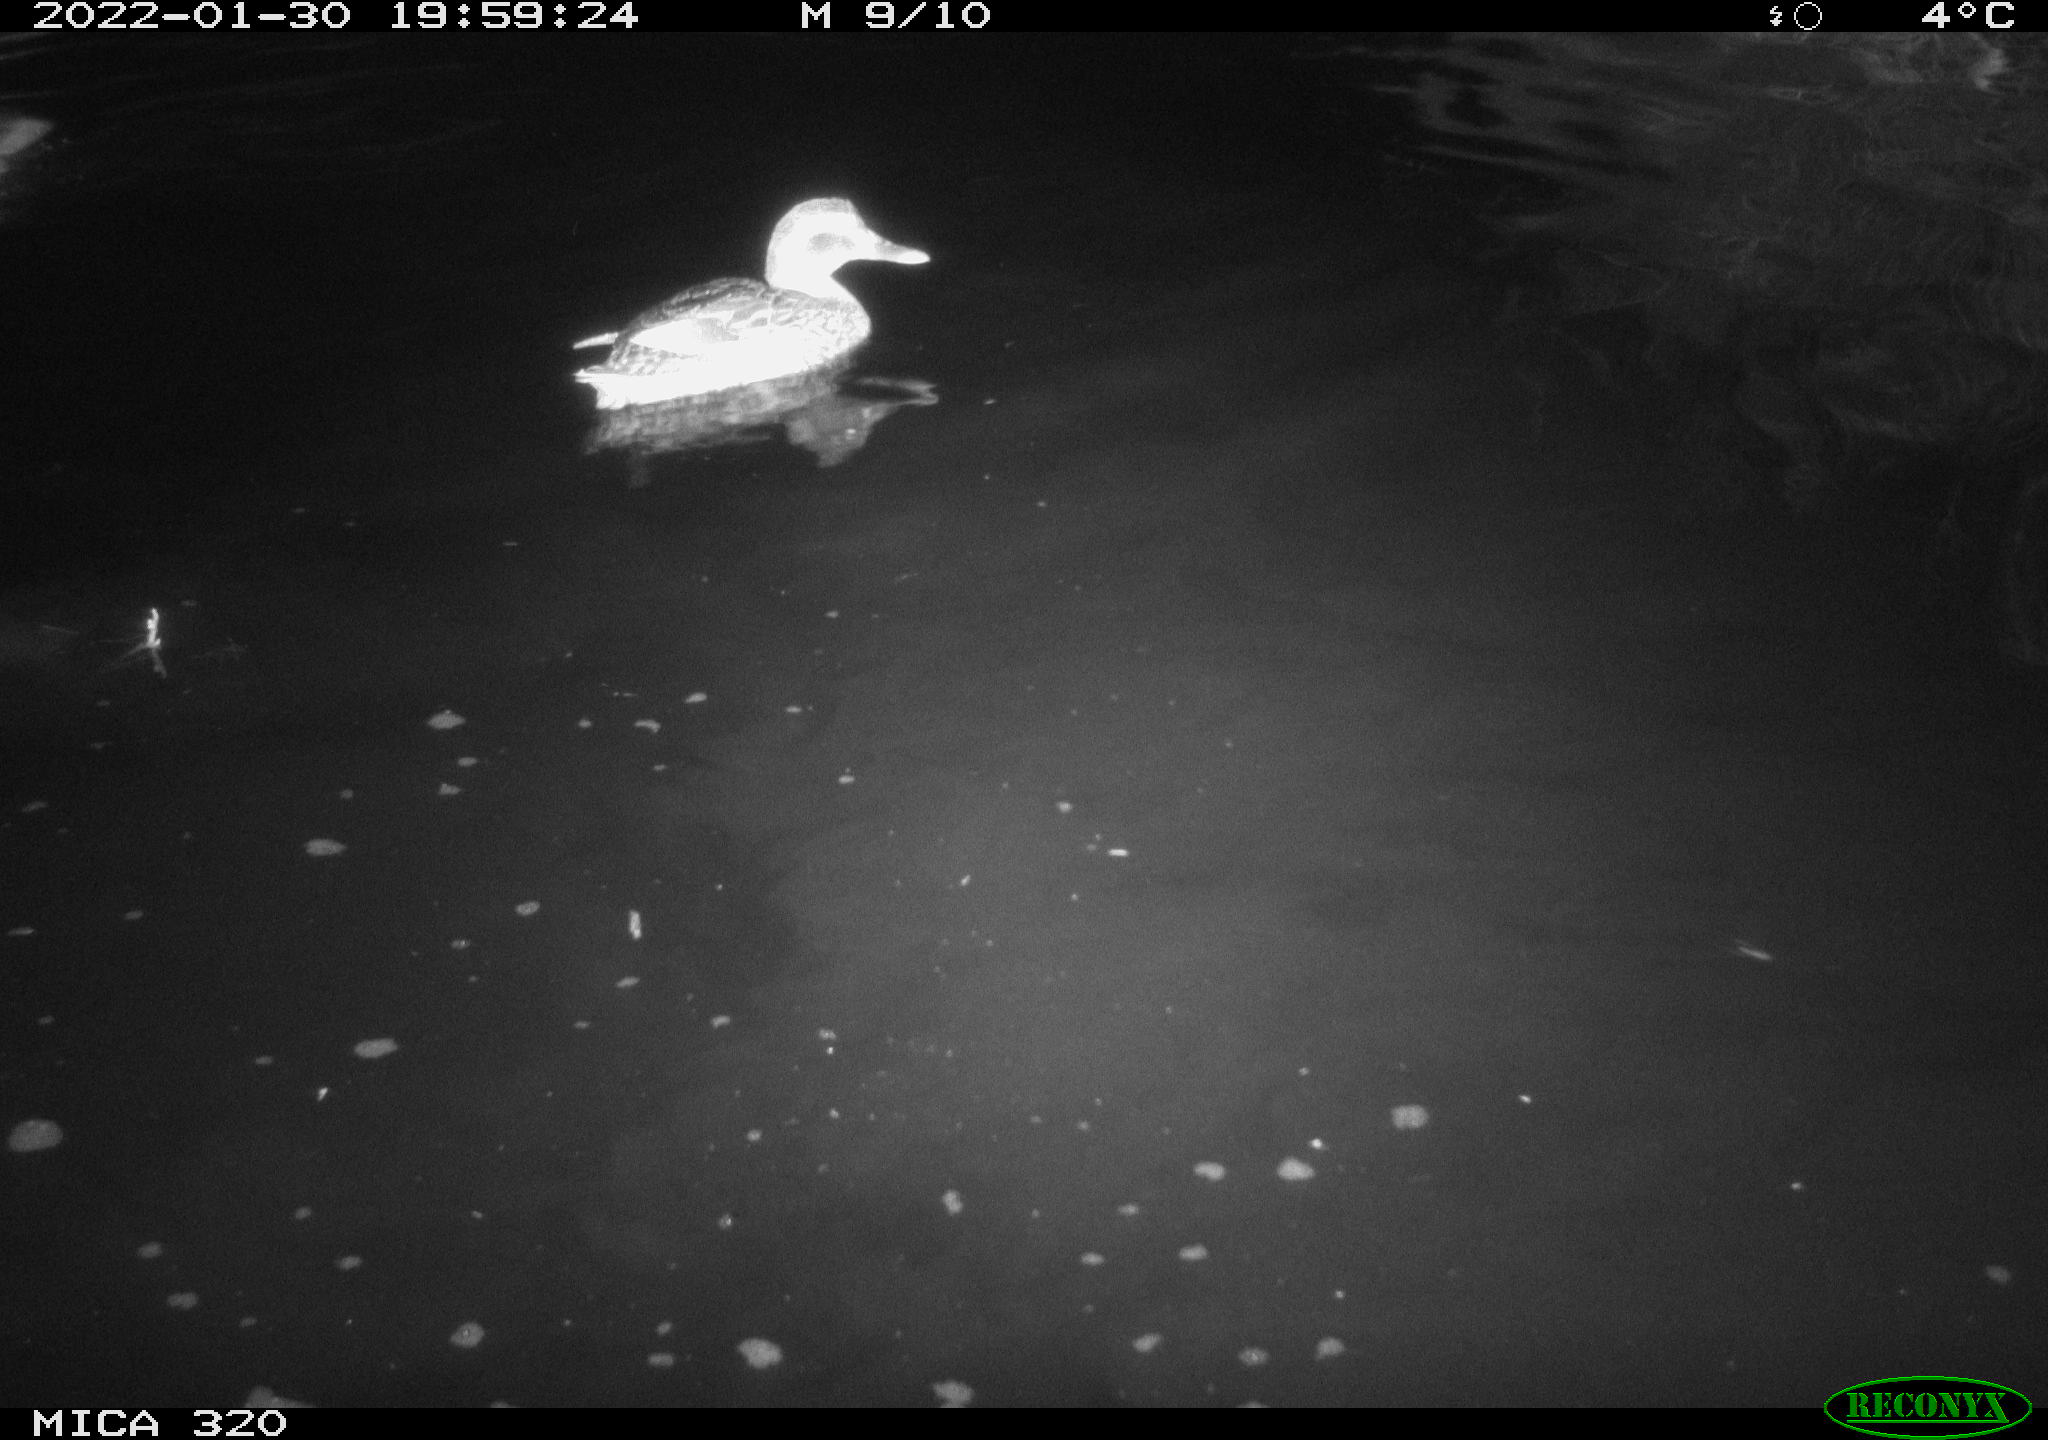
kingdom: Animalia
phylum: Chordata
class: Aves
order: Anseriformes
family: Anatidae
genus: Anas
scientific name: Anas
